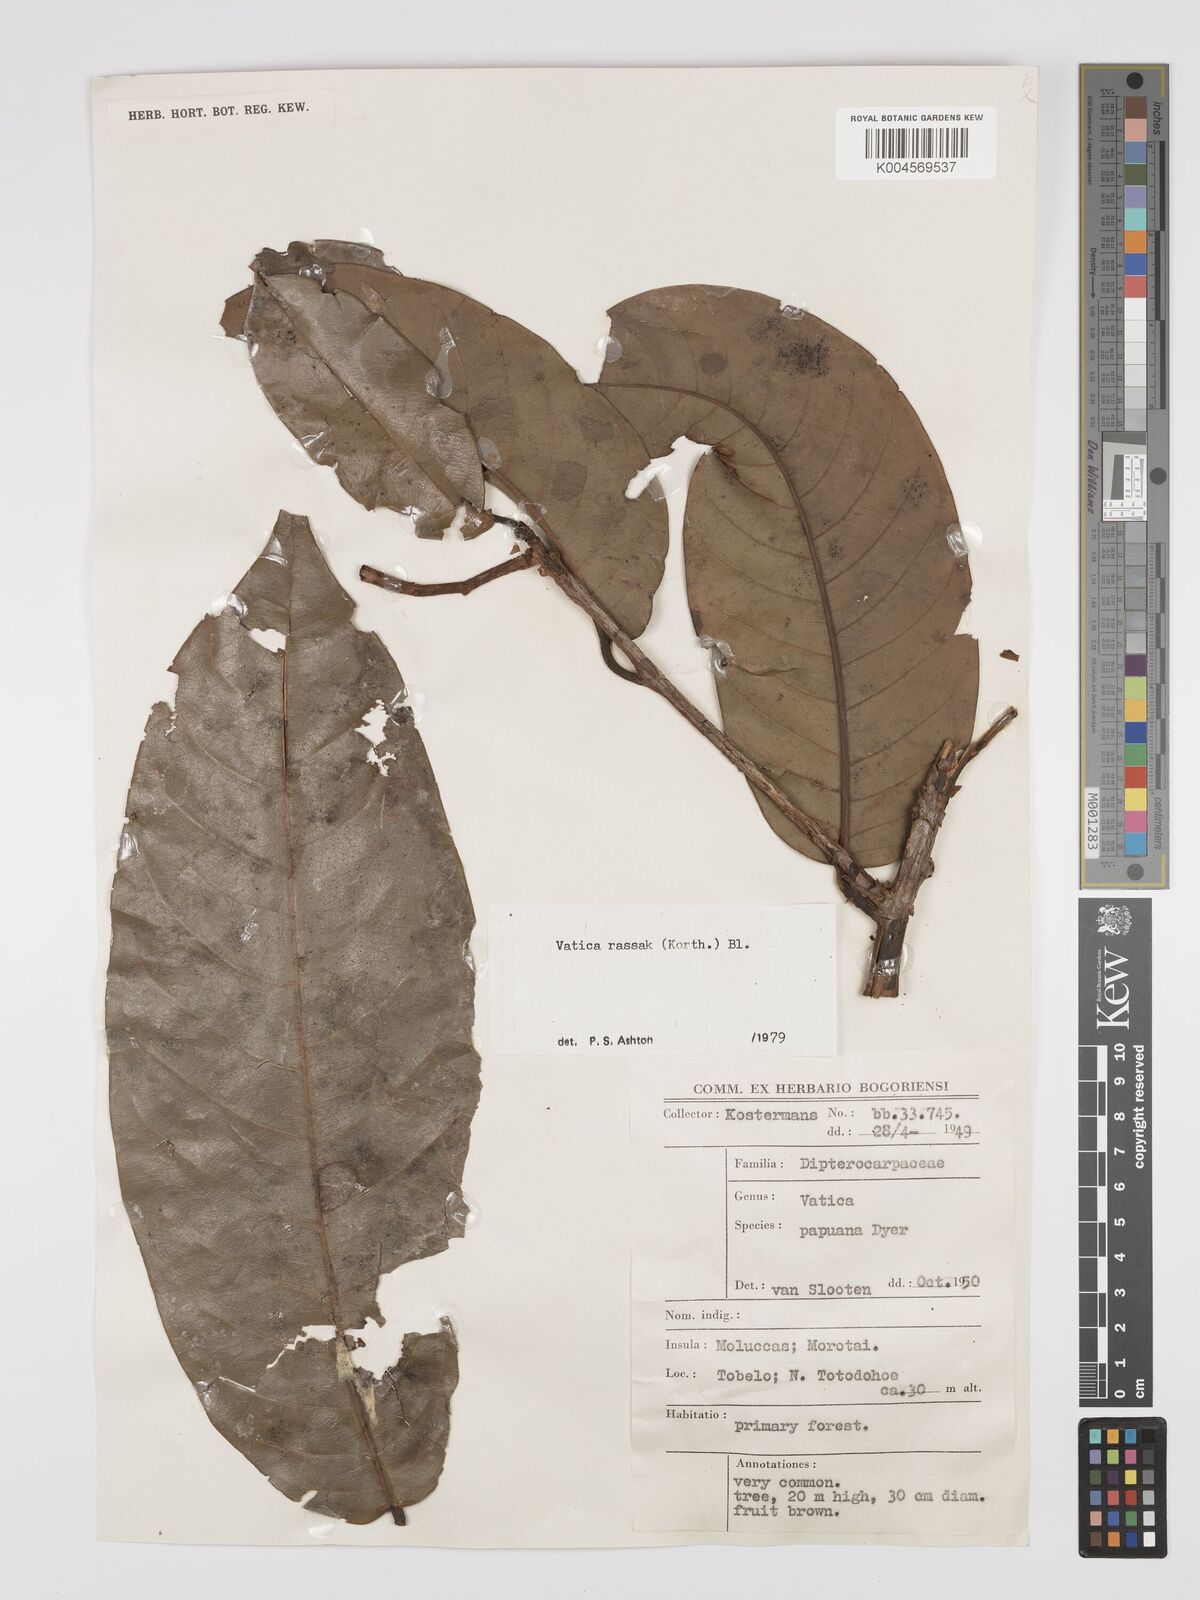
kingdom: Plantae
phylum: Tracheophyta
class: Magnoliopsida
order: Malvales
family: Dipterocarpaceae
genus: Vatica
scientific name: Vatica rassak
